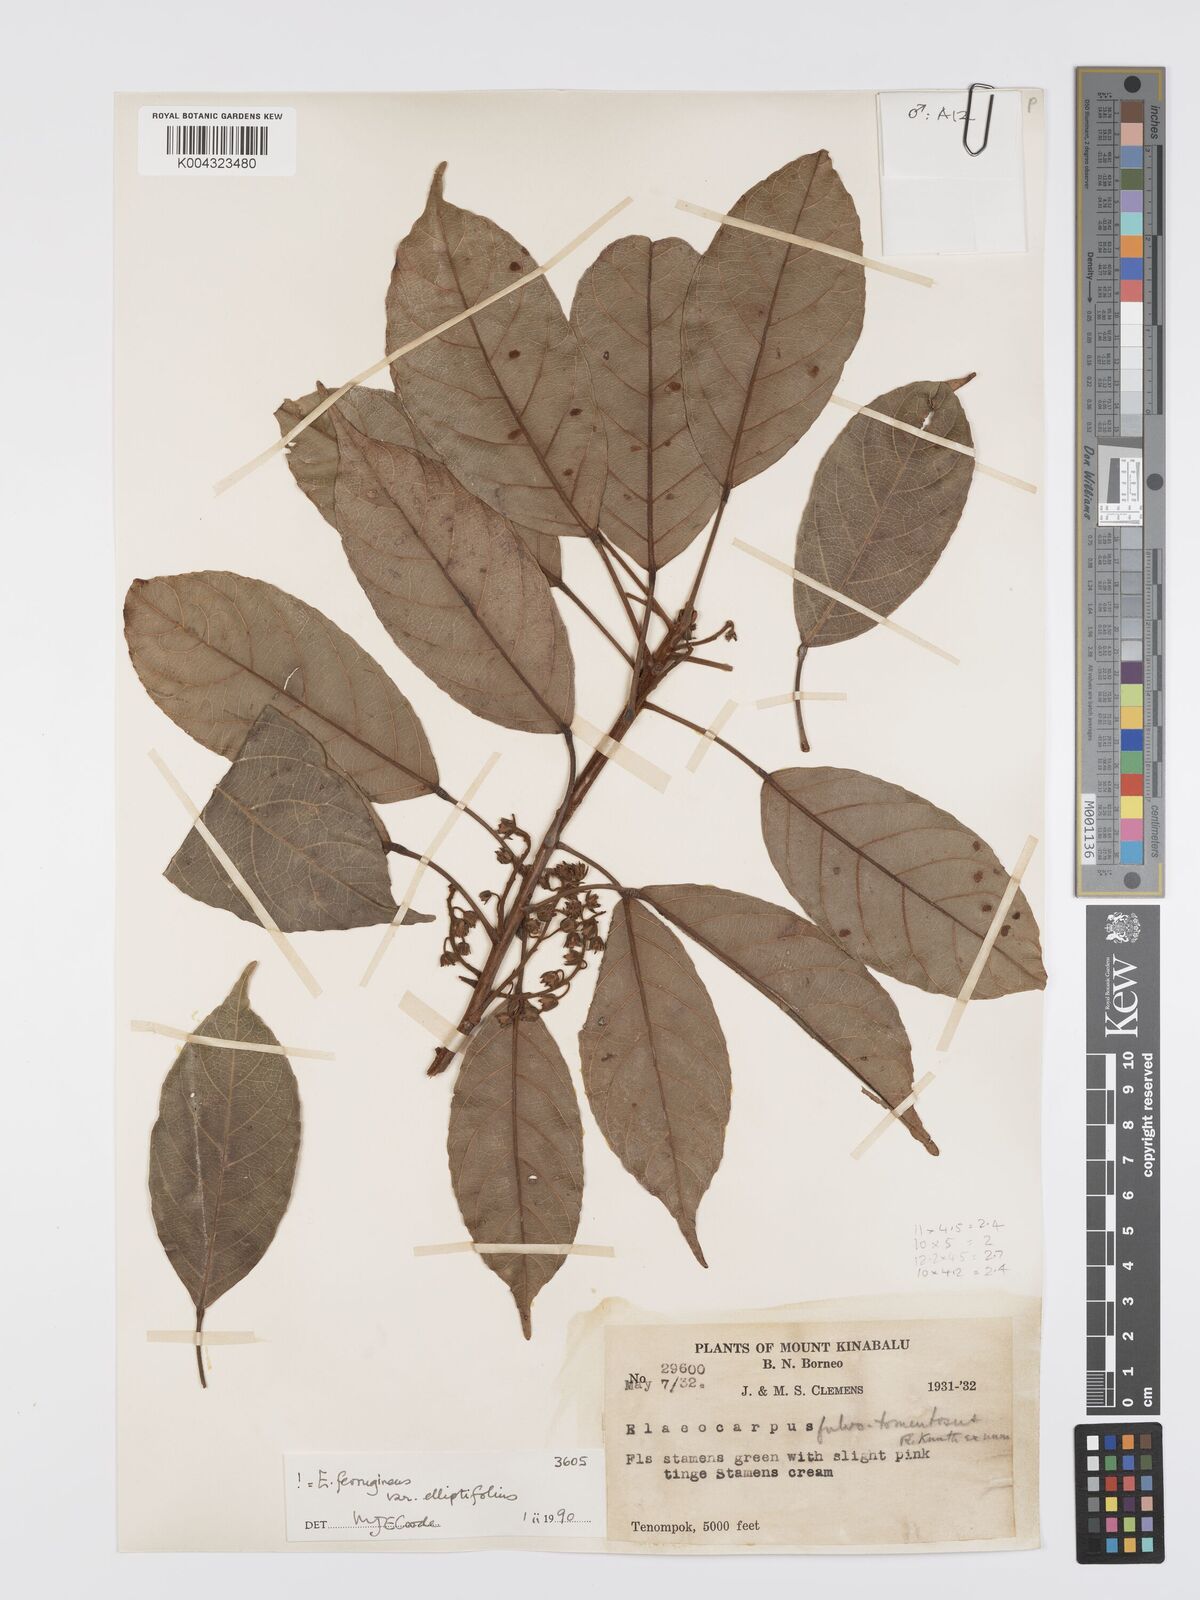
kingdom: Plantae
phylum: Tracheophyta
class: Magnoliopsida
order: Oxalidales
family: Elaeocarpaceae
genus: Elaeocarpus
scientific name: Elaeocarpus ferrugineus
